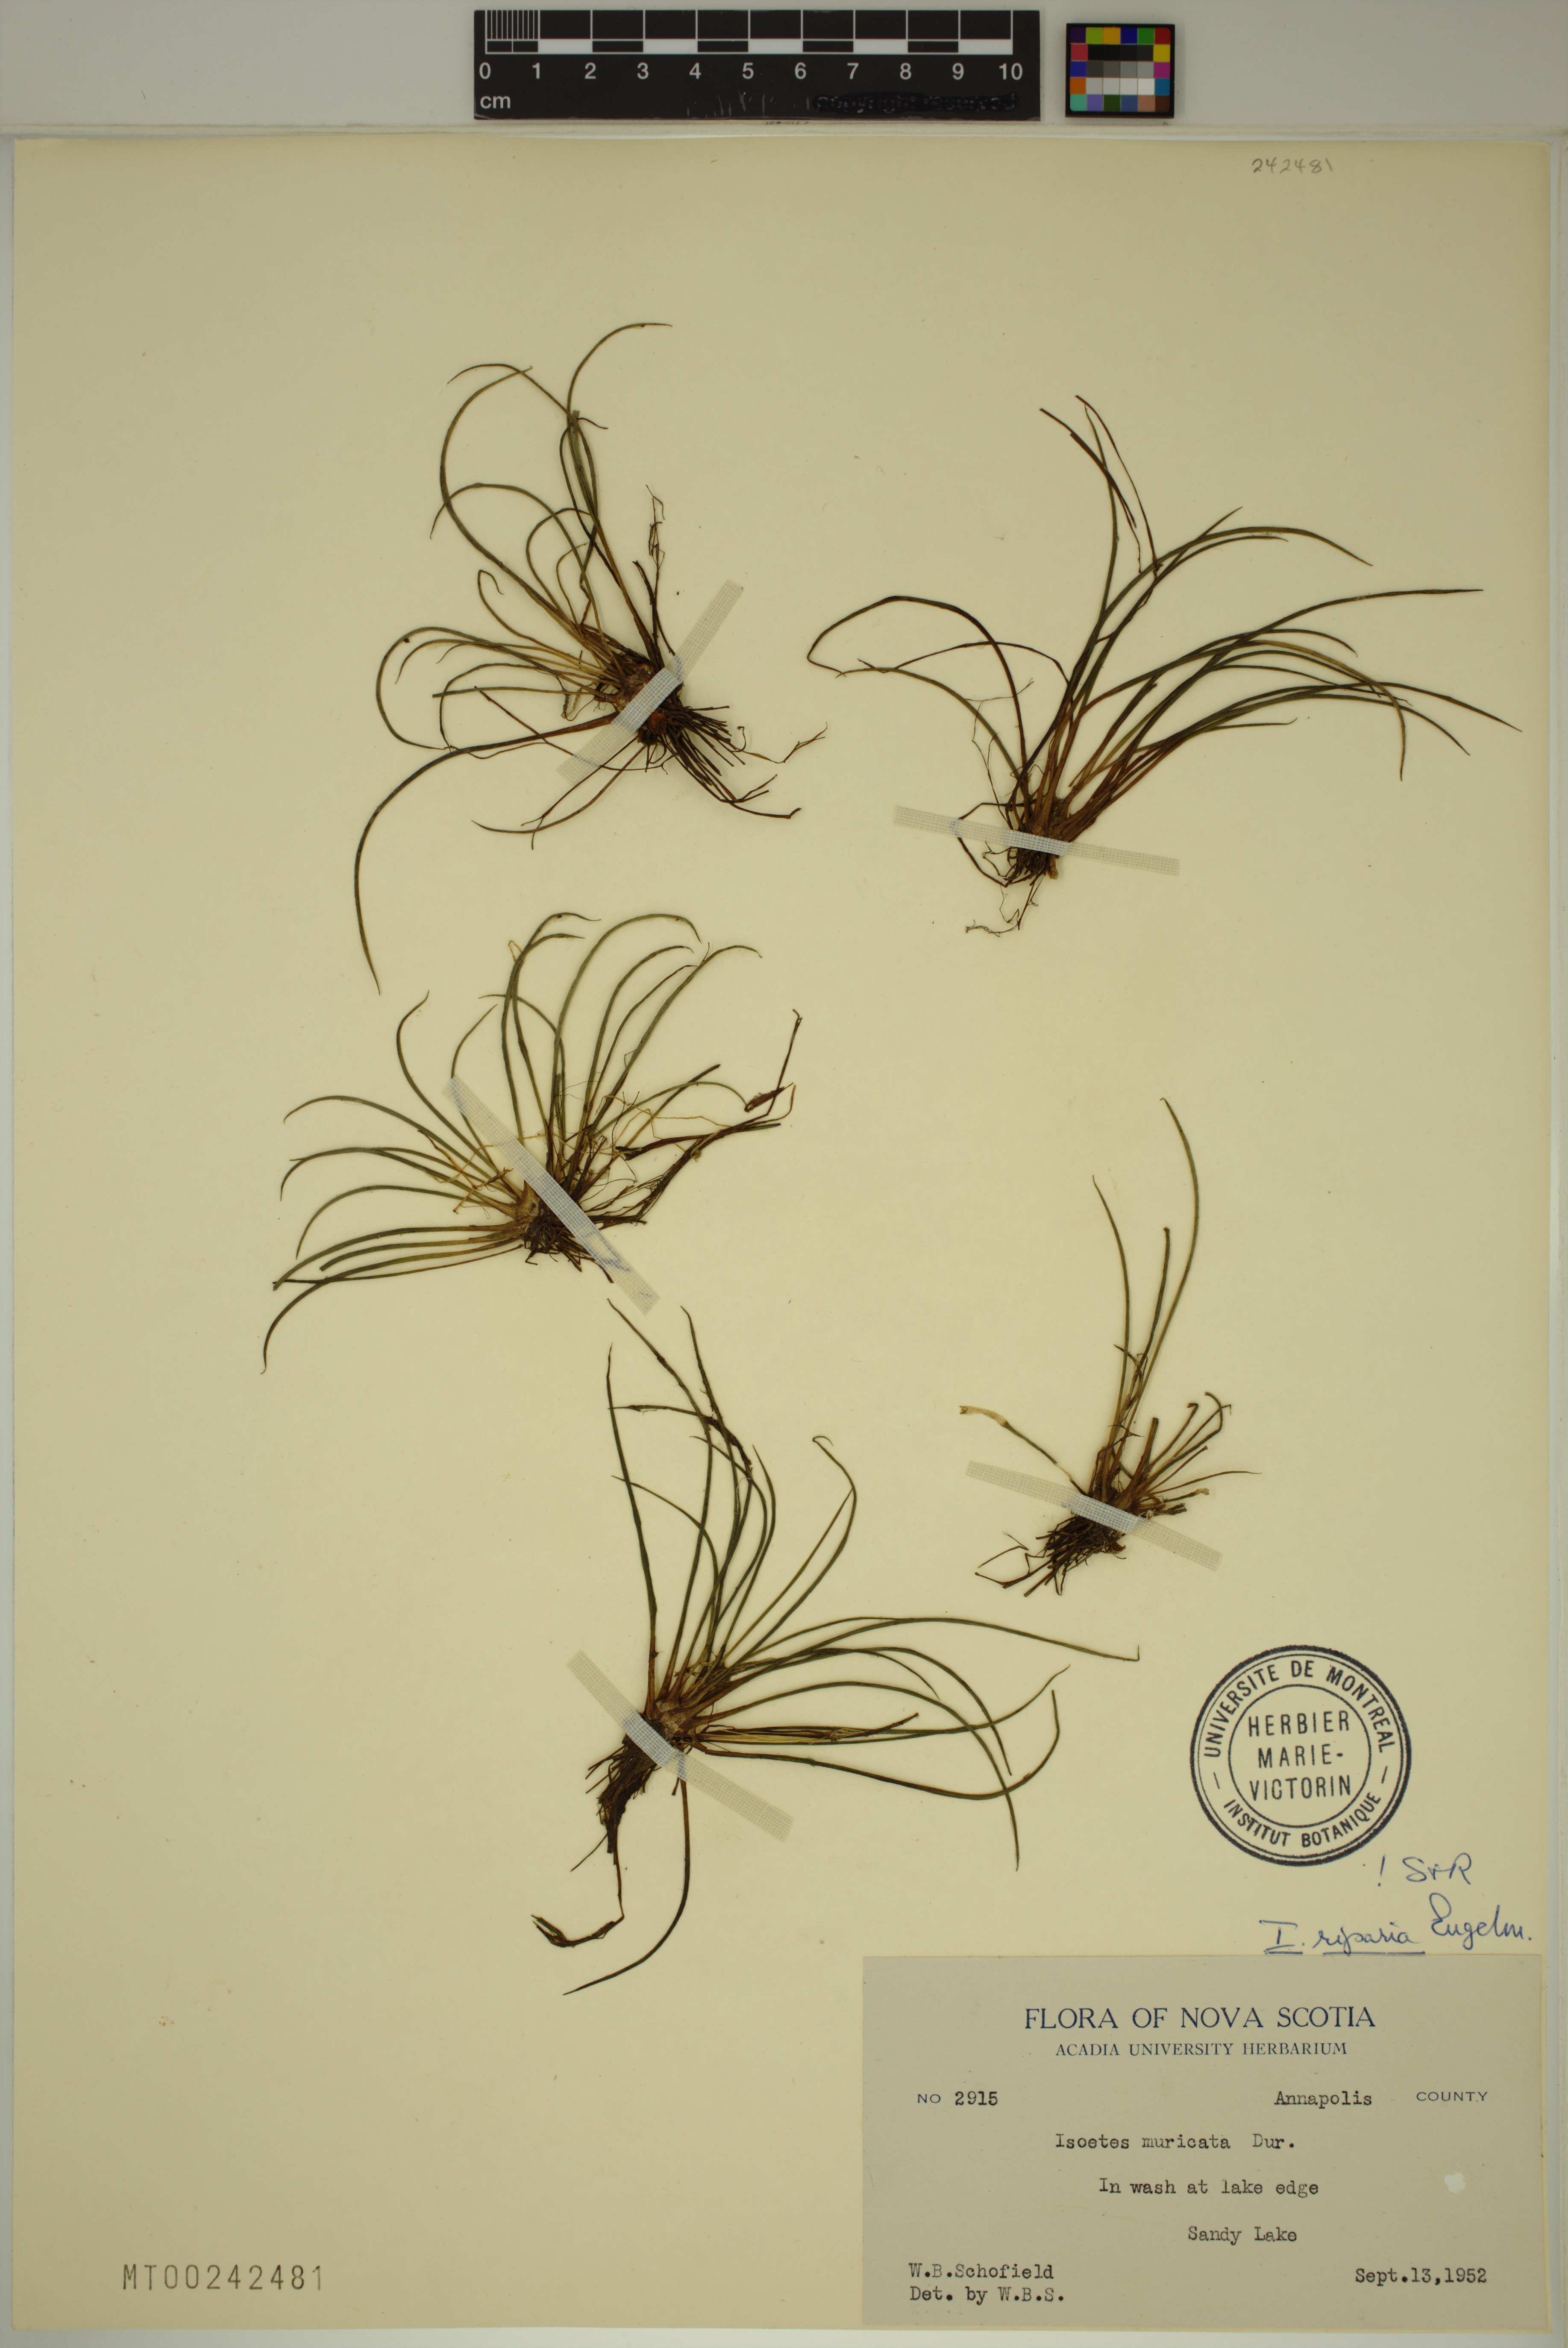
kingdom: Plantae
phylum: Tracheophyta
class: Lycopodiopsida
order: Isoetales
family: Isoetaceae
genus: Isoetes
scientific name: Isoetes lacustris
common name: Common quillwort
